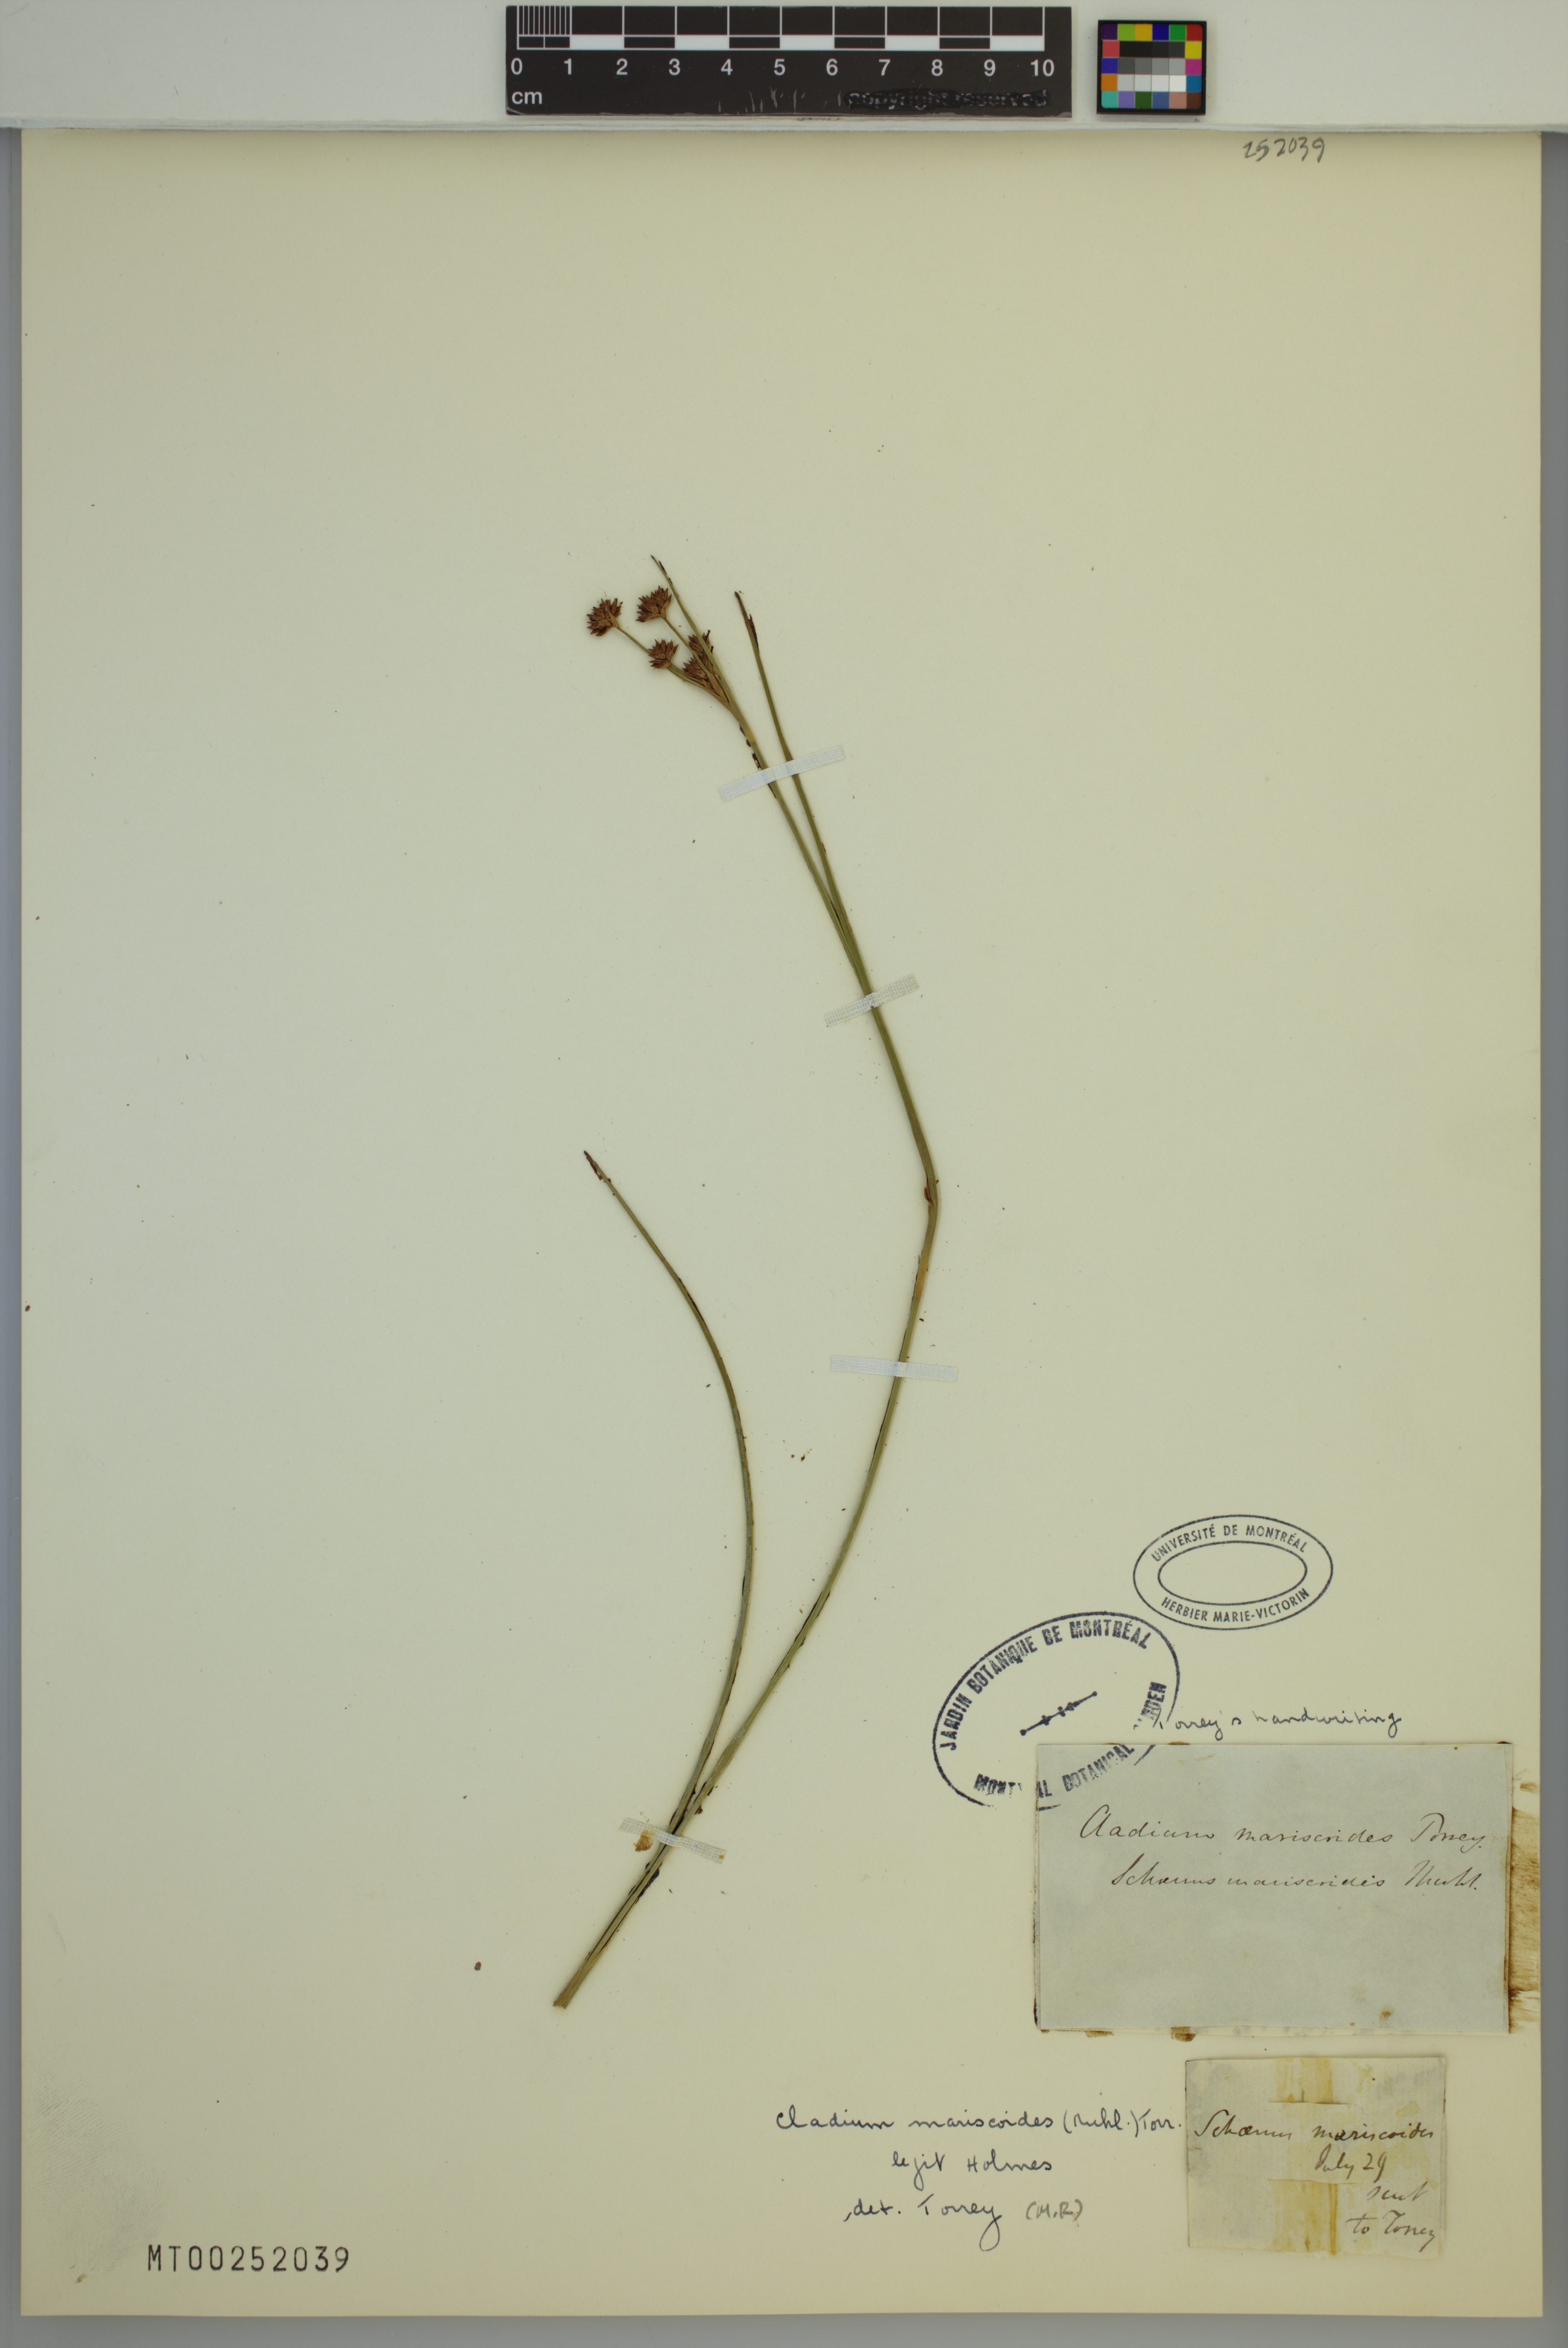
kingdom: Plantae
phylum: Tracheophyta
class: Liliopsida
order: Poales
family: Cyperaceae
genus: Cladium
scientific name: Cladium mariscoides
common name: Smooth sawgrass
